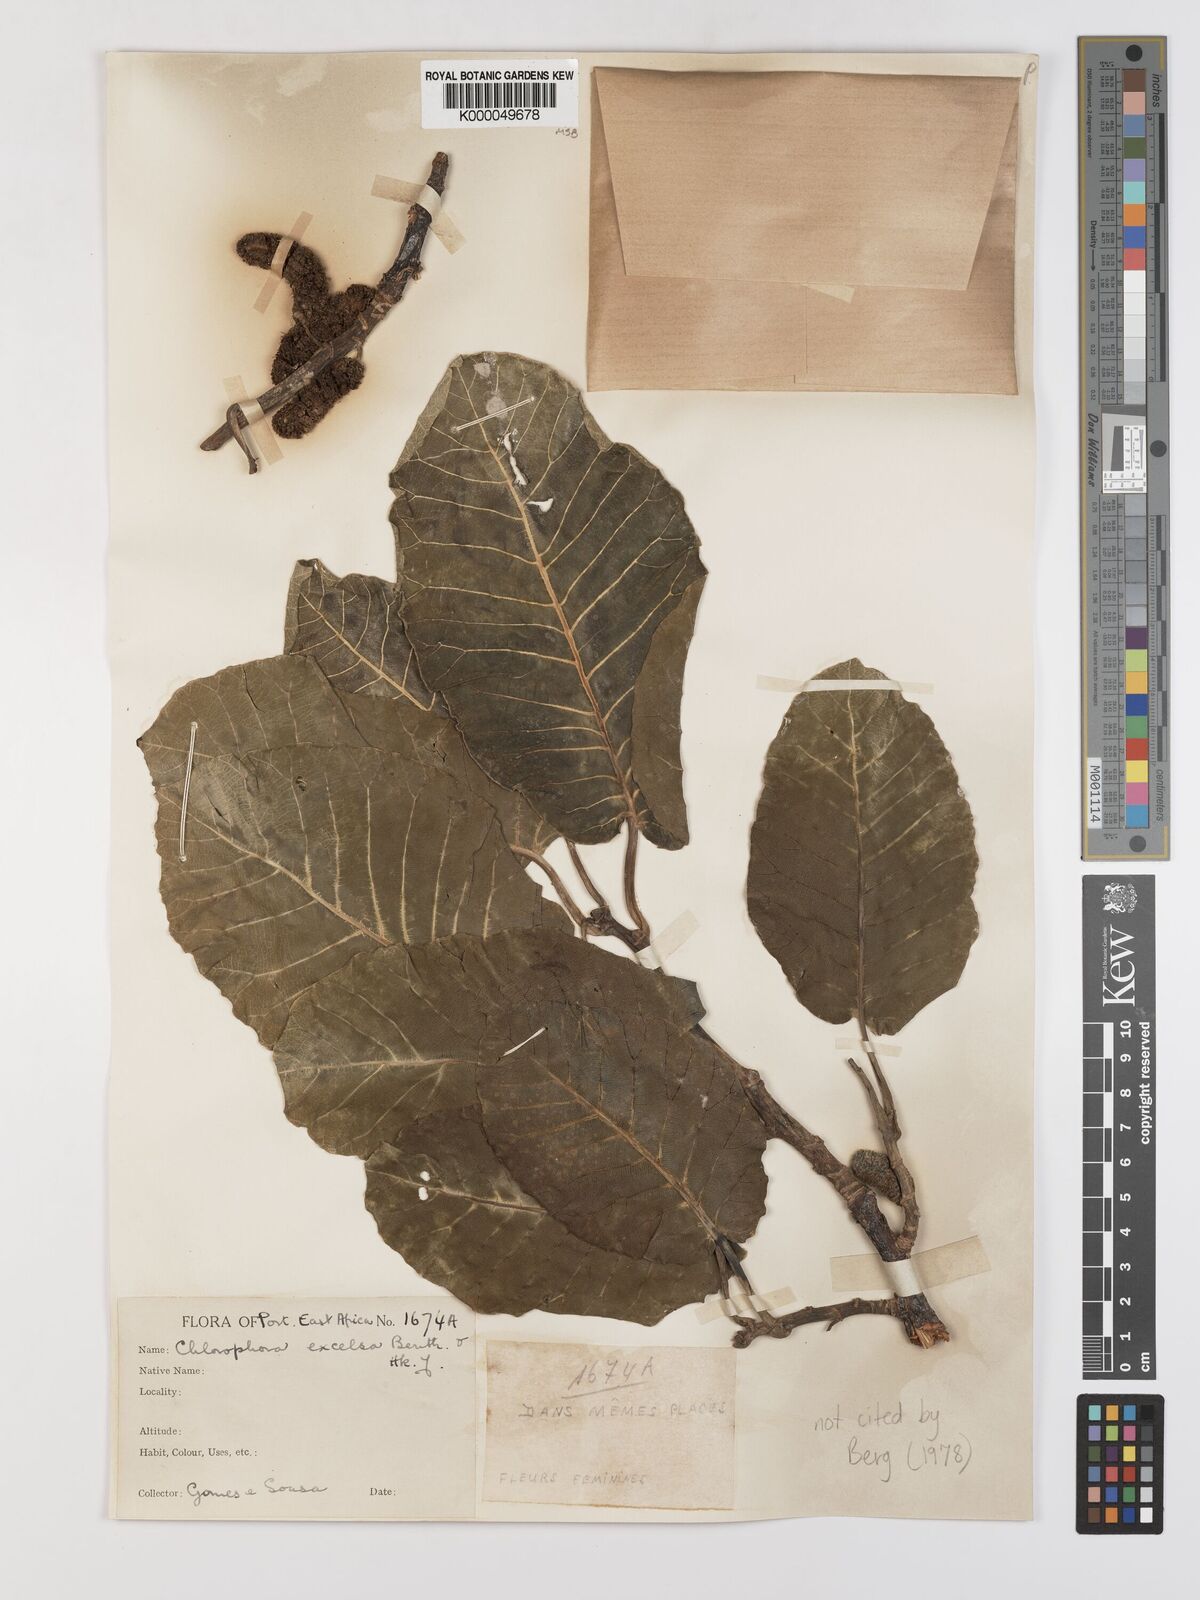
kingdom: Plantae
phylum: Tracheophyta
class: Magnoliopsida
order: Rosales
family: Moraceae
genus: Milicia
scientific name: Milicia excelsa
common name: African teak
